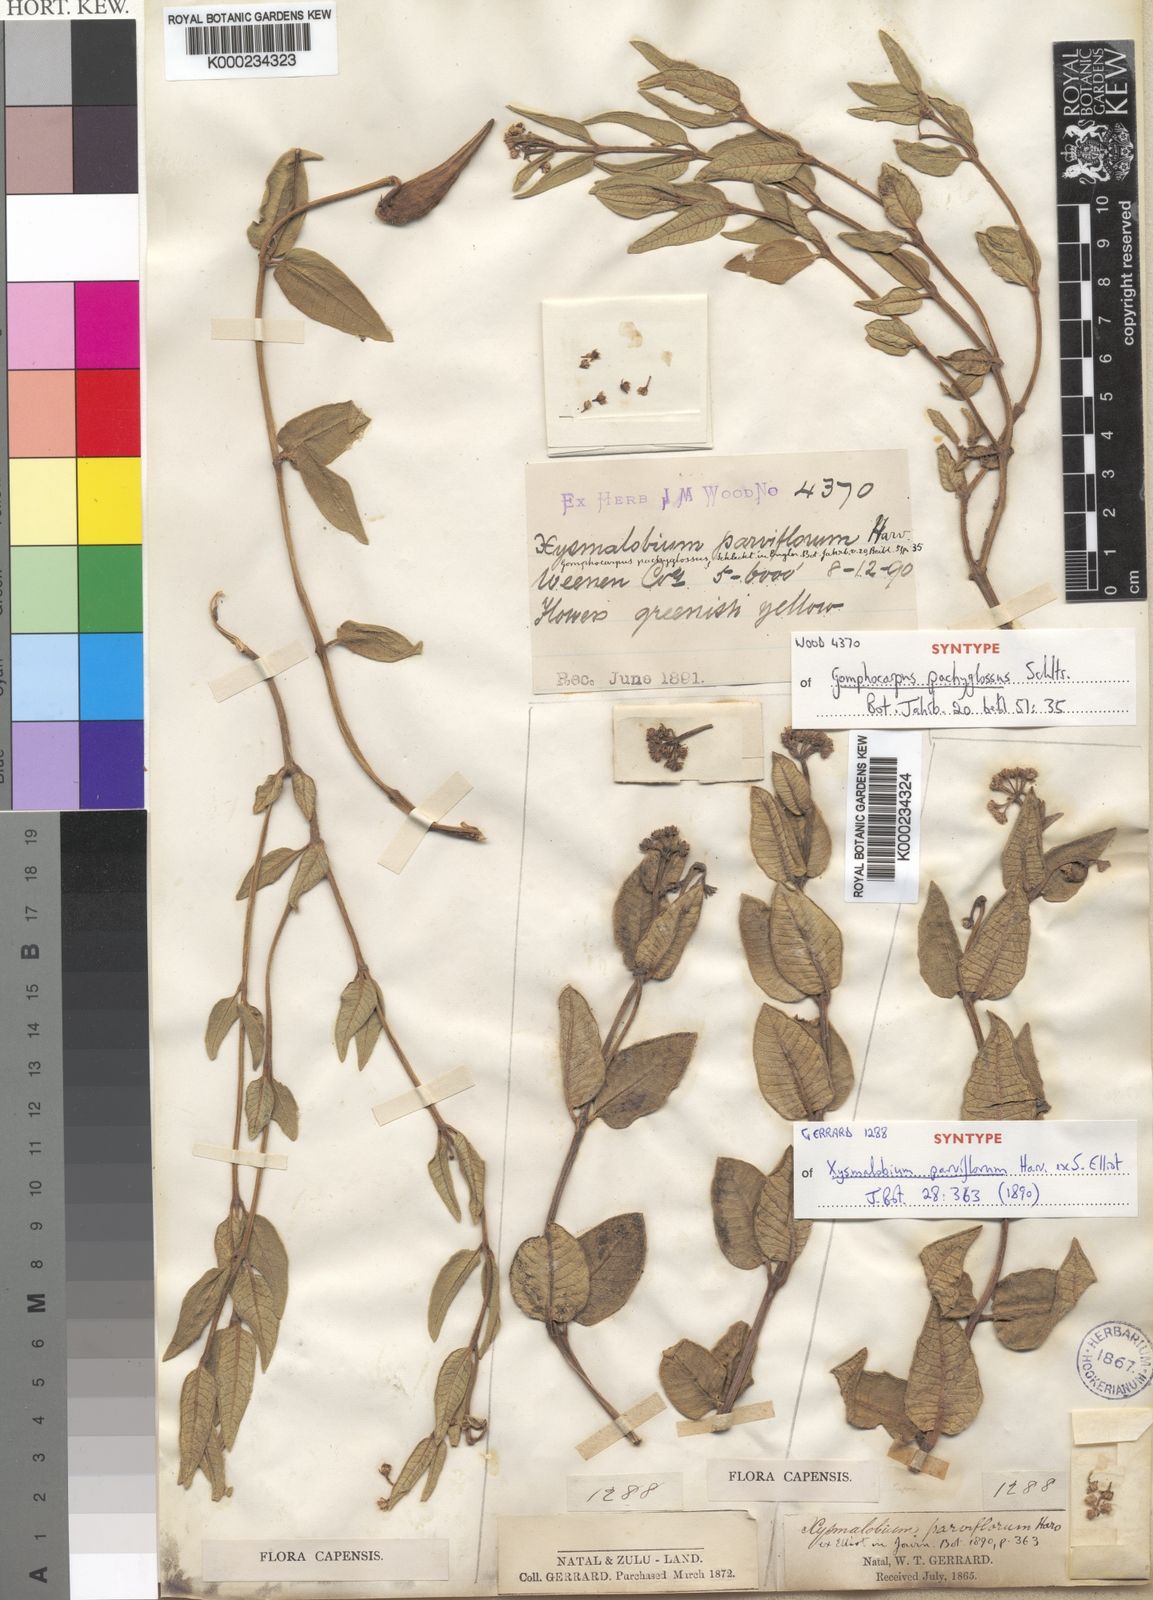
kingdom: Plantae
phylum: Tracheophyta
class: Magnoliopsida
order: Gentianales
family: Apocynaceae
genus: Xysmalobium
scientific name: Xysmalobium parviflorum
